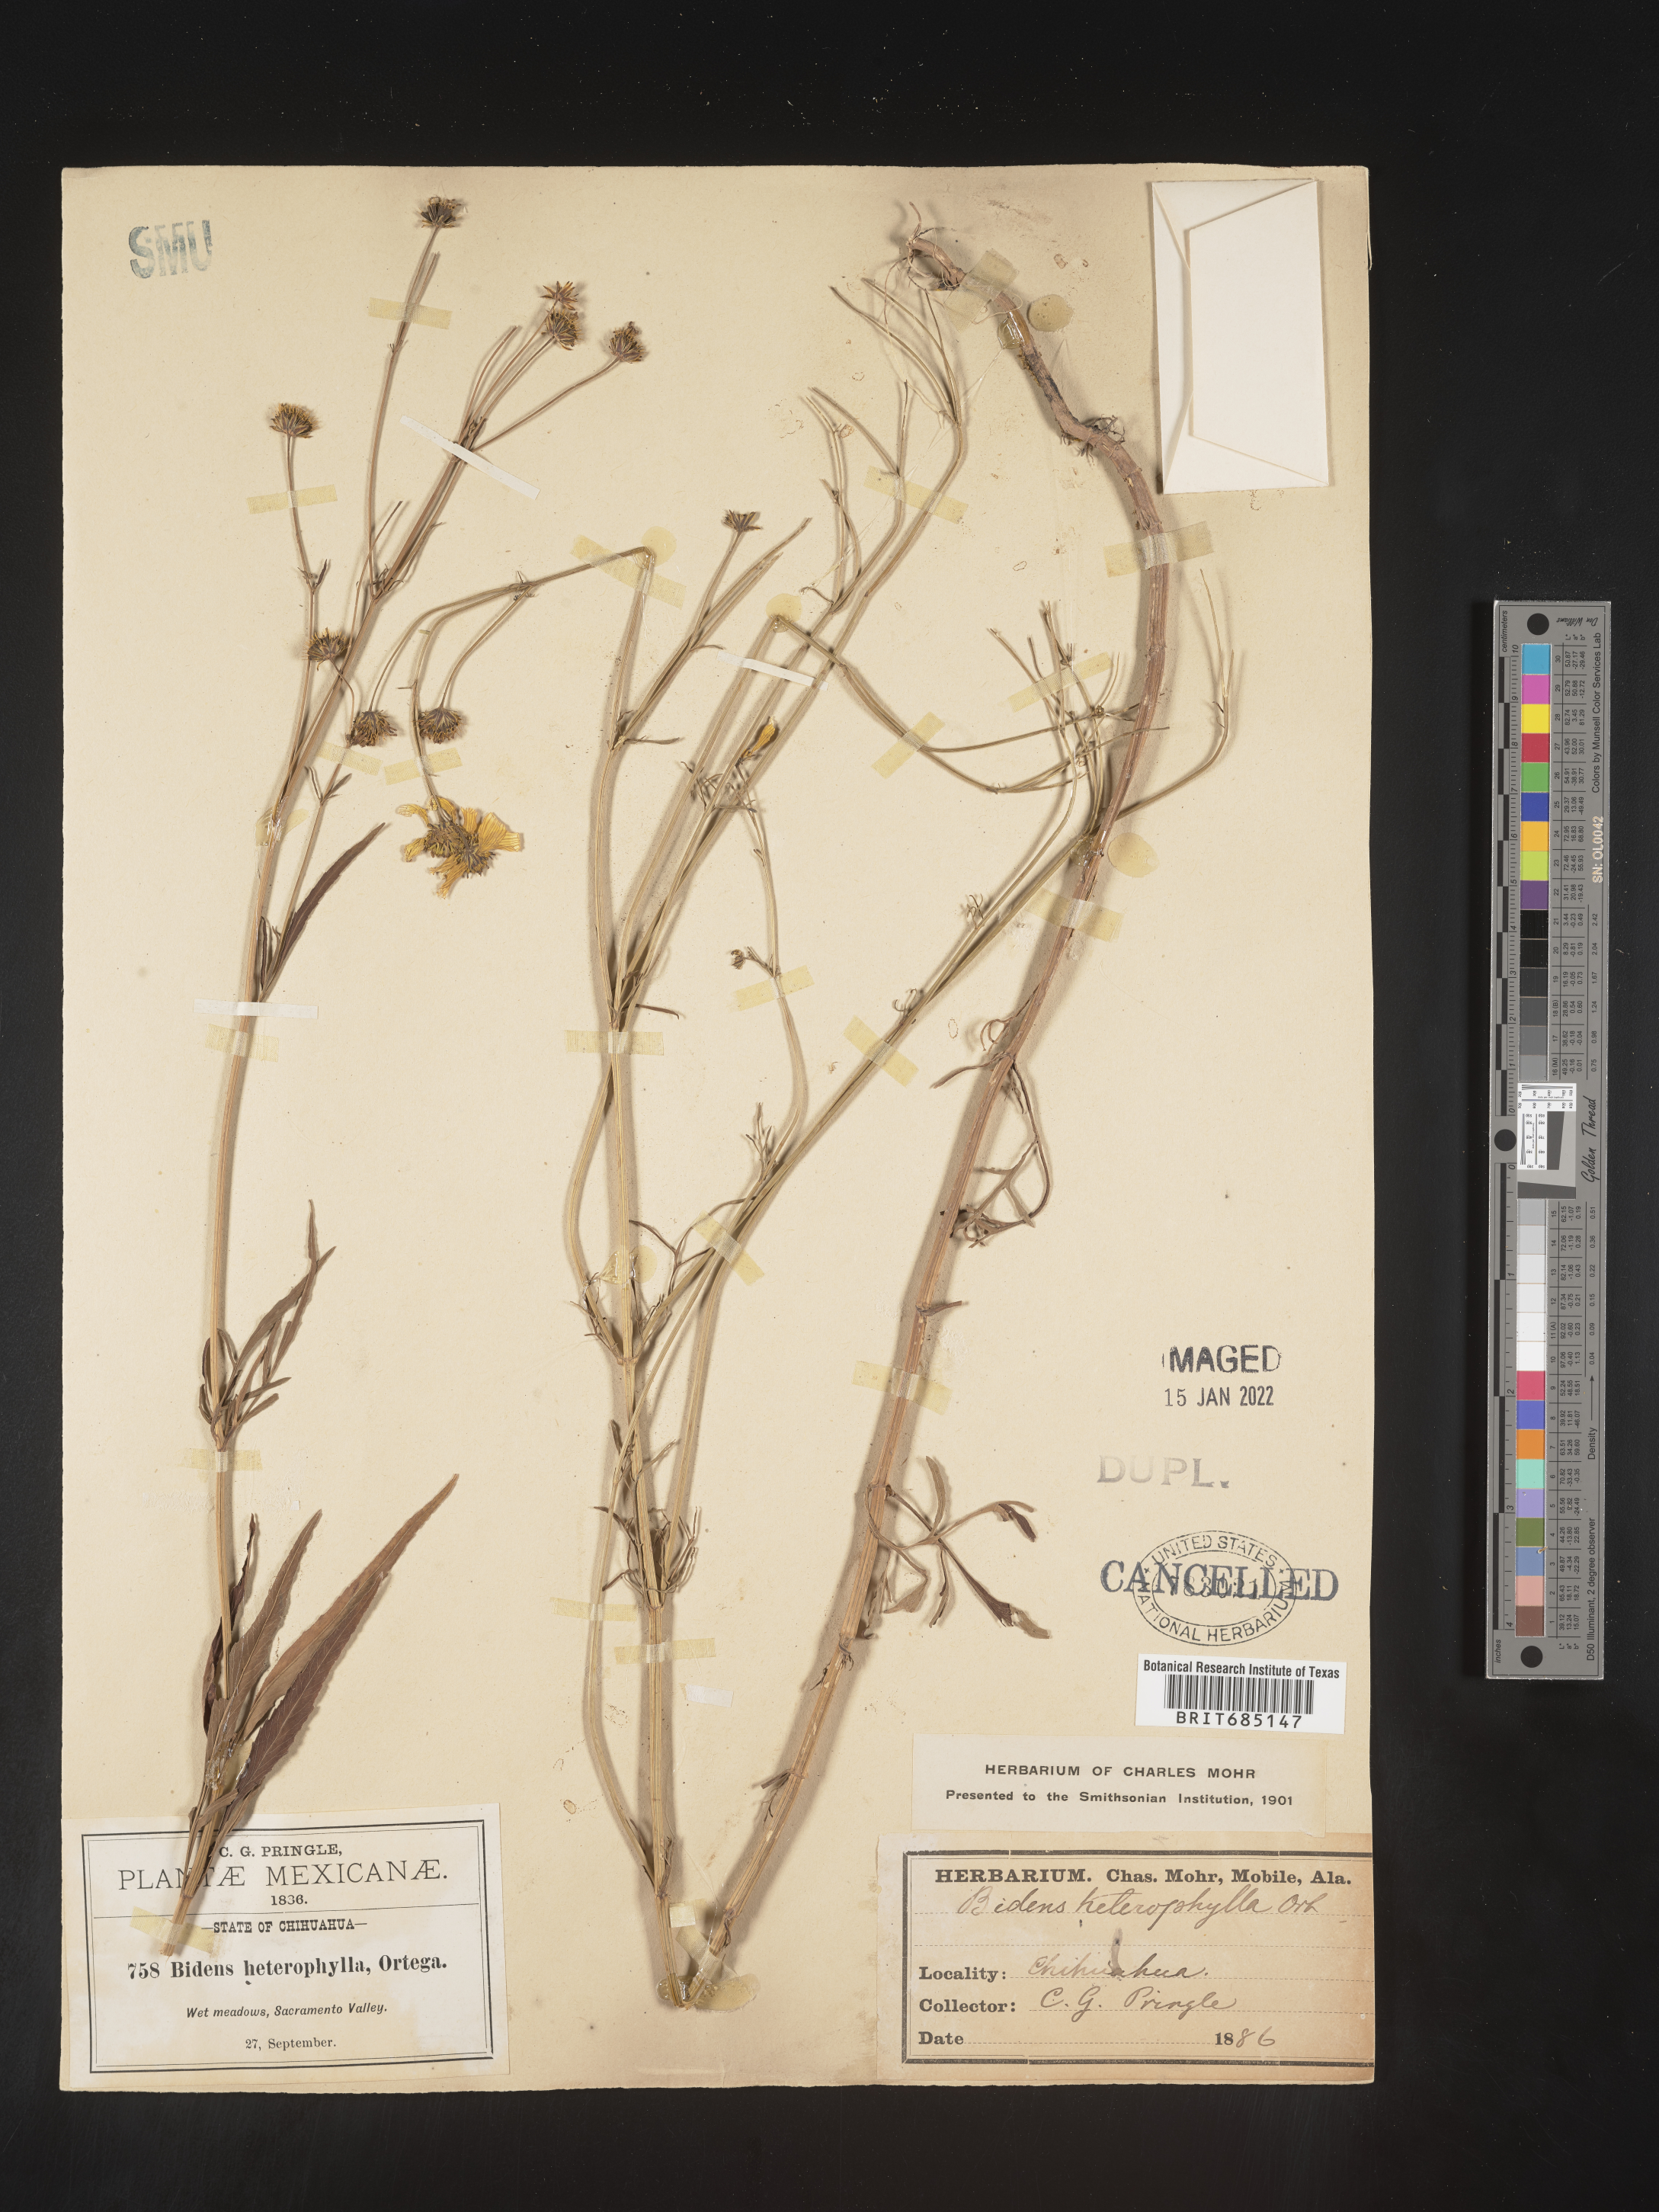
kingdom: Plantae
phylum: Tracheophyta
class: Magnoliopsida
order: Asterales
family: Asteraceae
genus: Bidens
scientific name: Bidens
